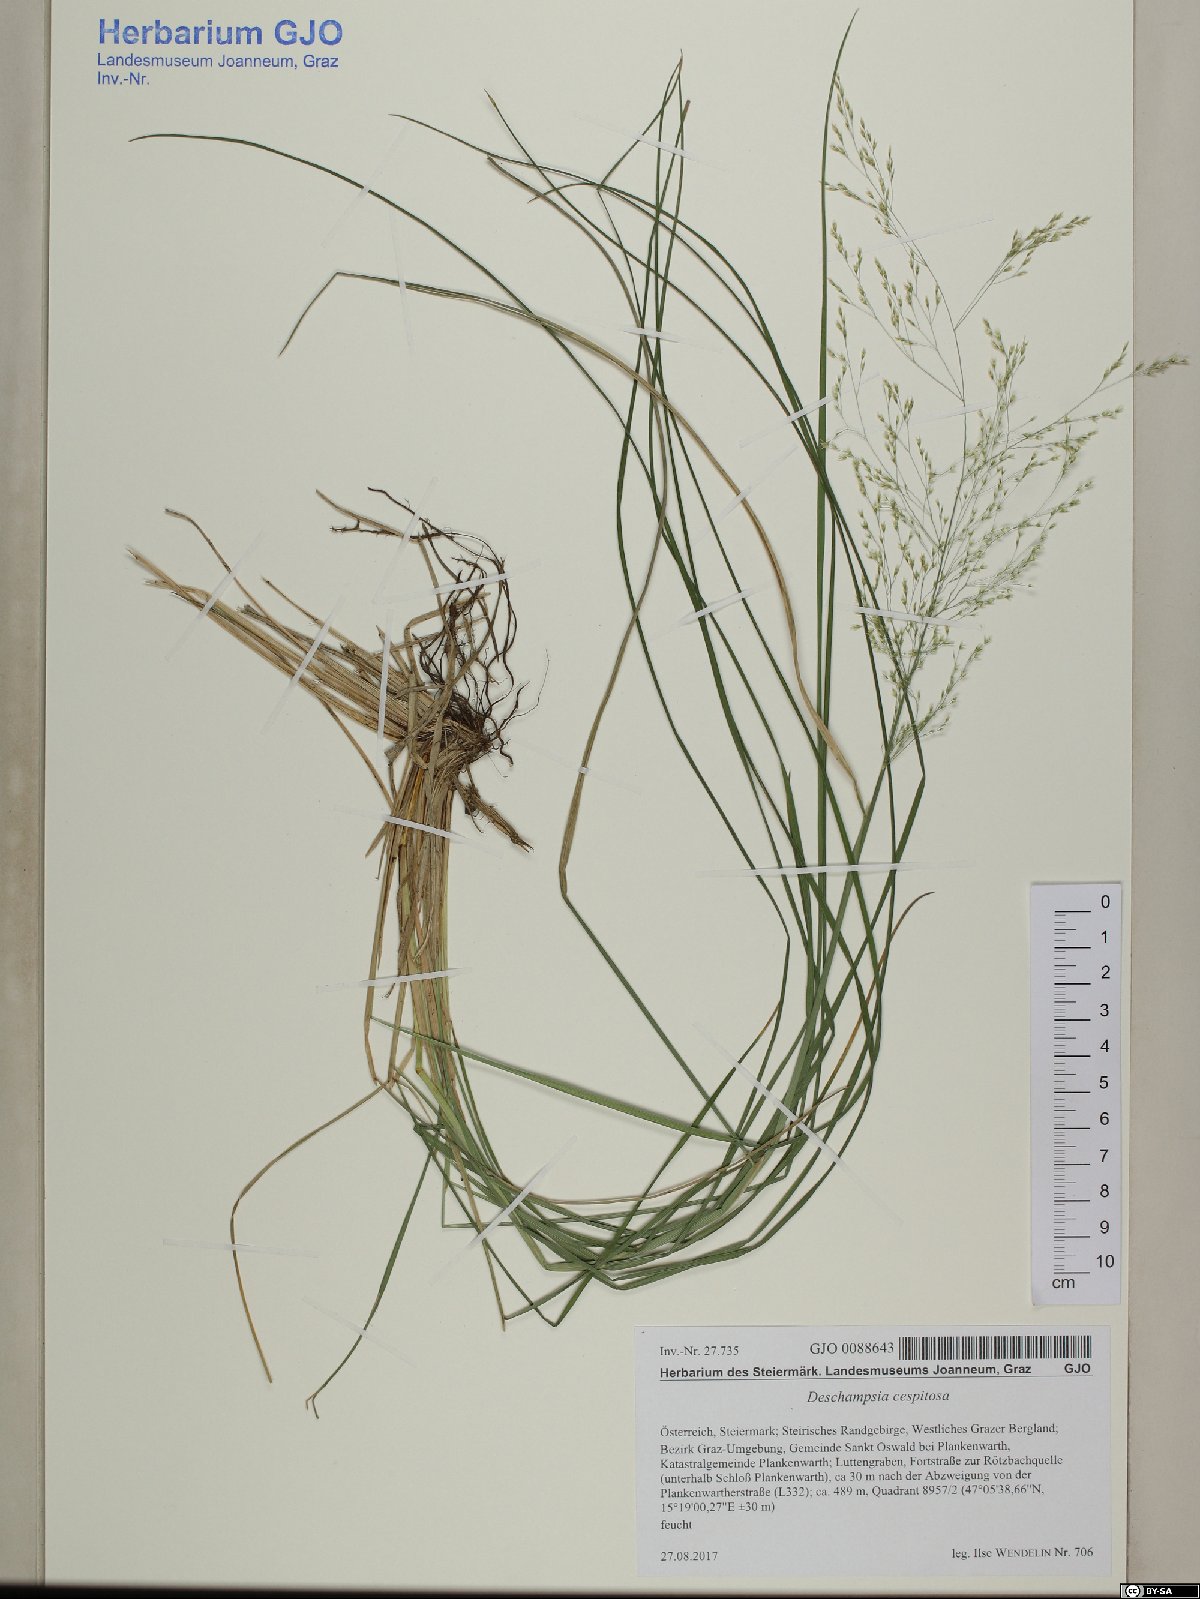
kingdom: Plantae
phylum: Tracheophyta
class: Liliopsida
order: Poales
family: Poaceae
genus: Deschampsia
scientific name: Deschampsia cespitosa
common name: Tufted hair-grass
